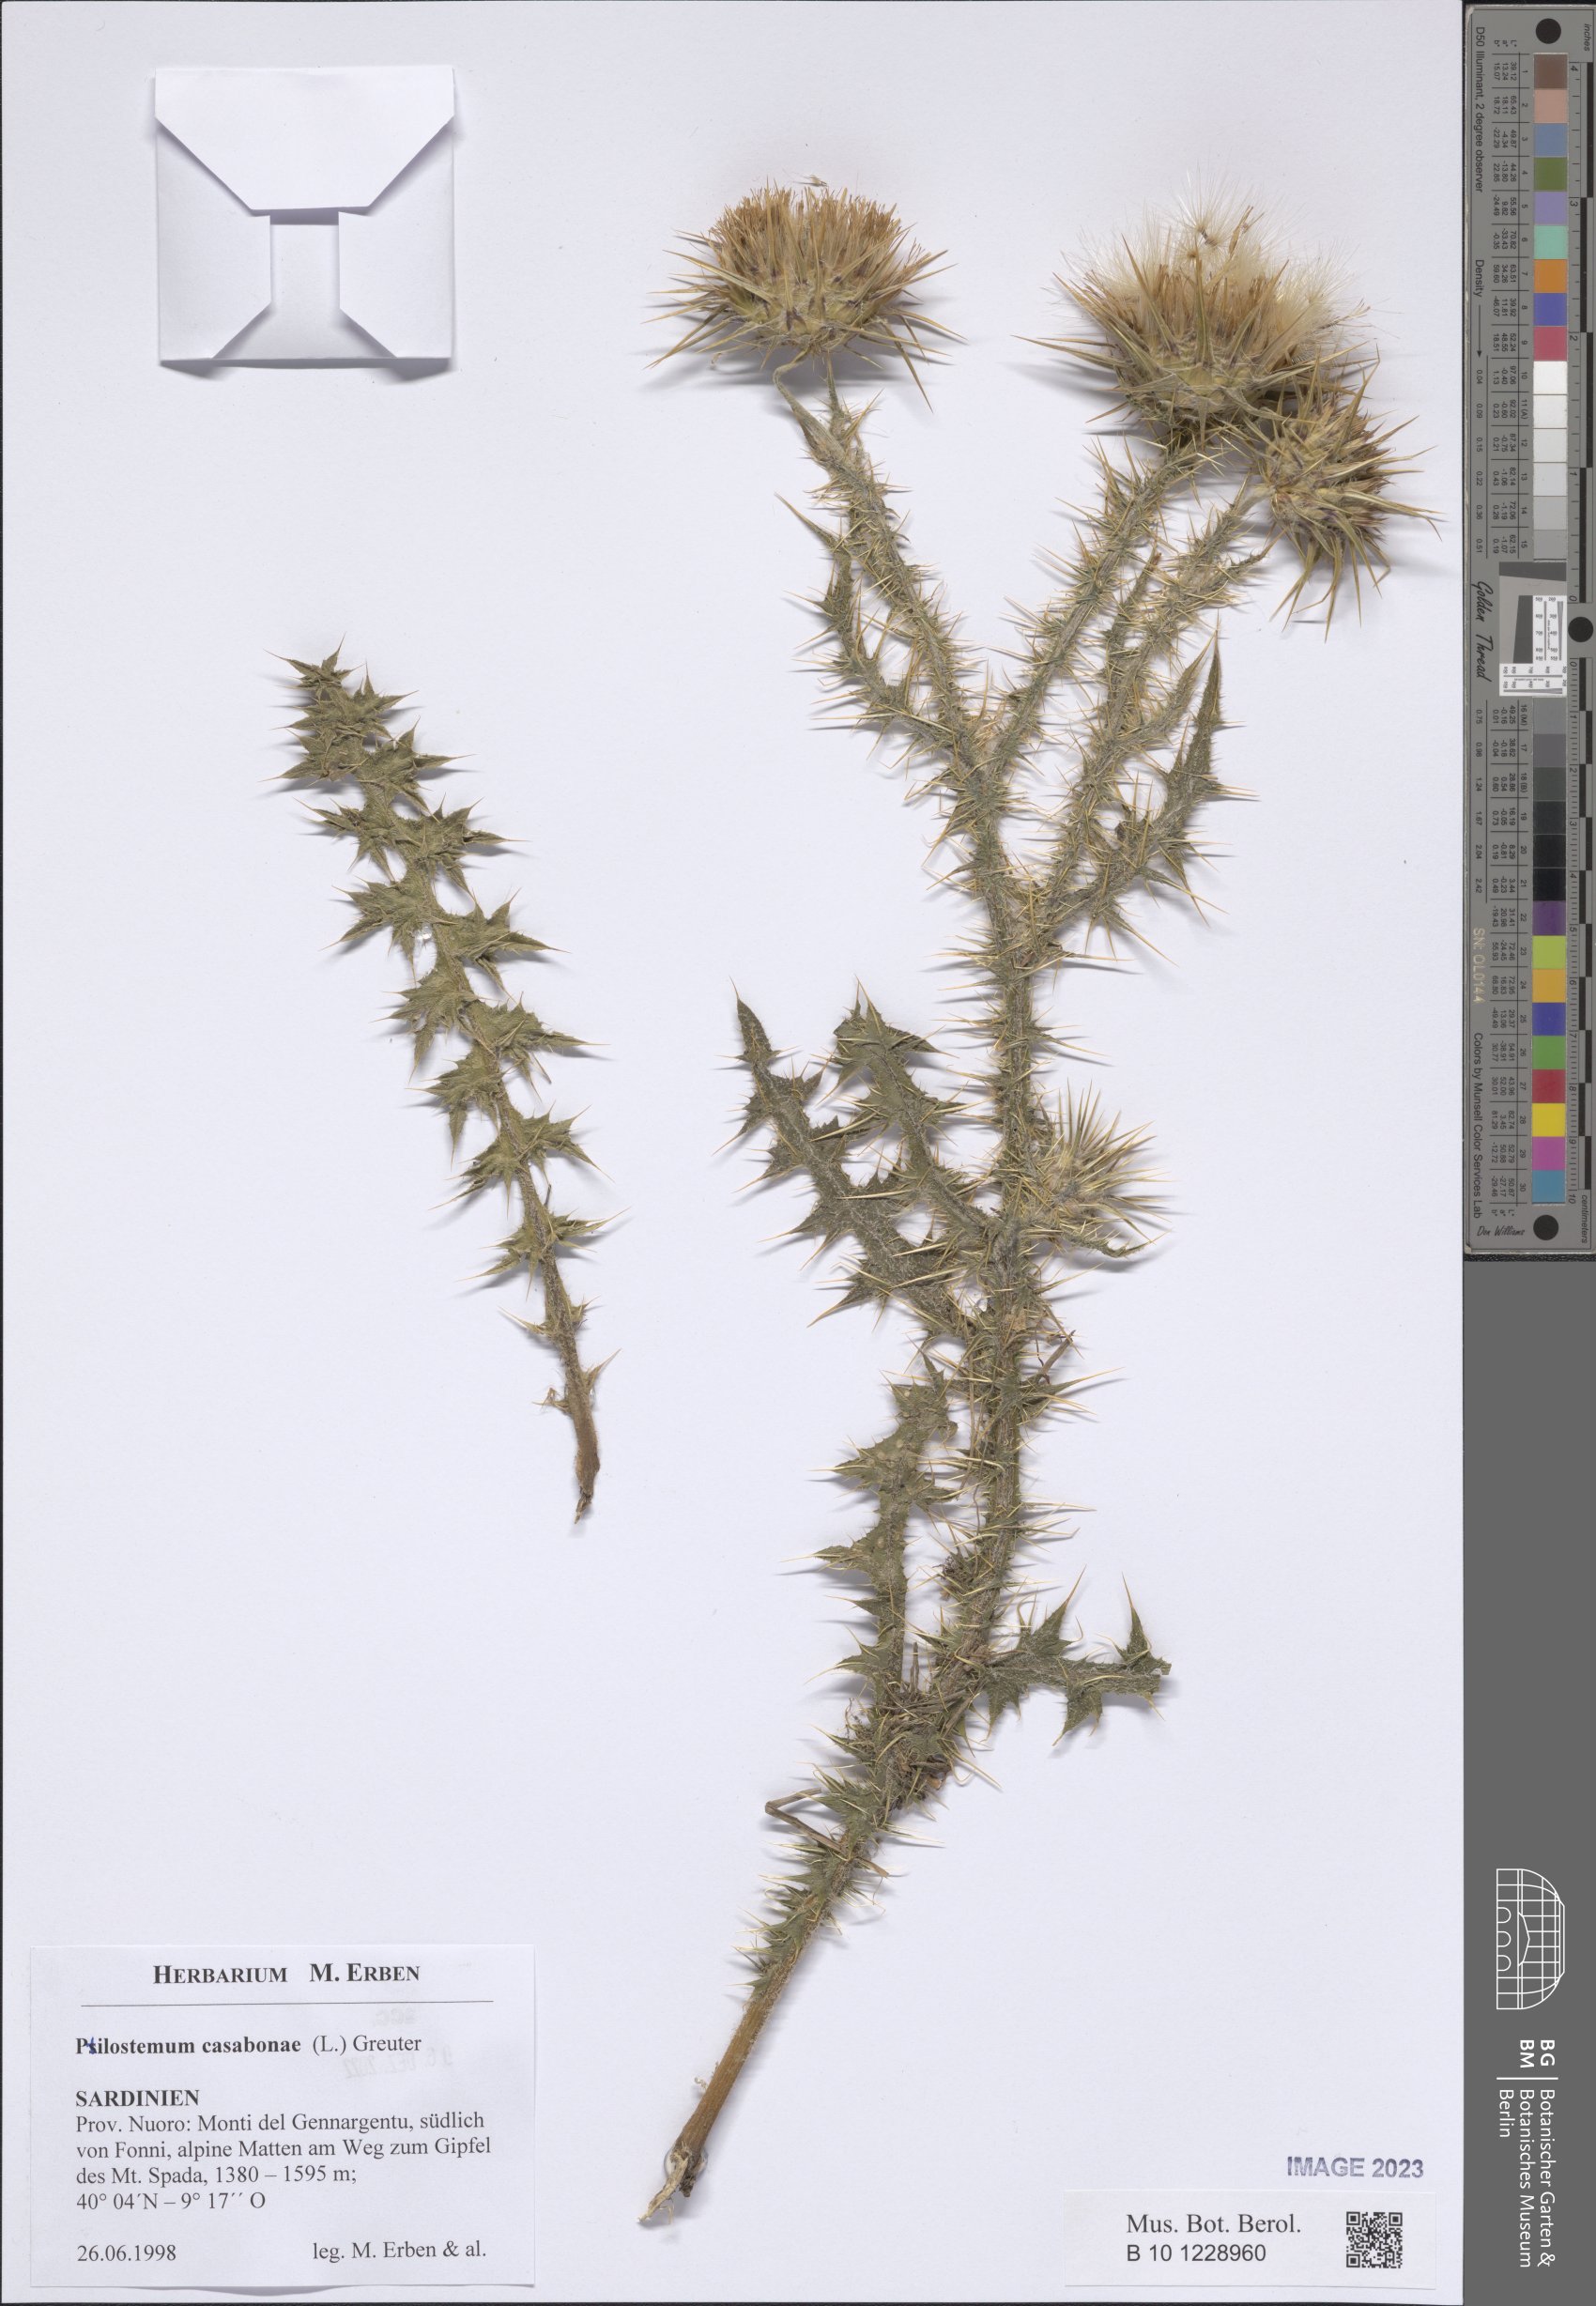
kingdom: Plantae
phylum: Tracheophyta
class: Magnoliopsida
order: Asterales
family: Asteraceae
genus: Ptilostemon
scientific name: Ptilostemon casabonae
